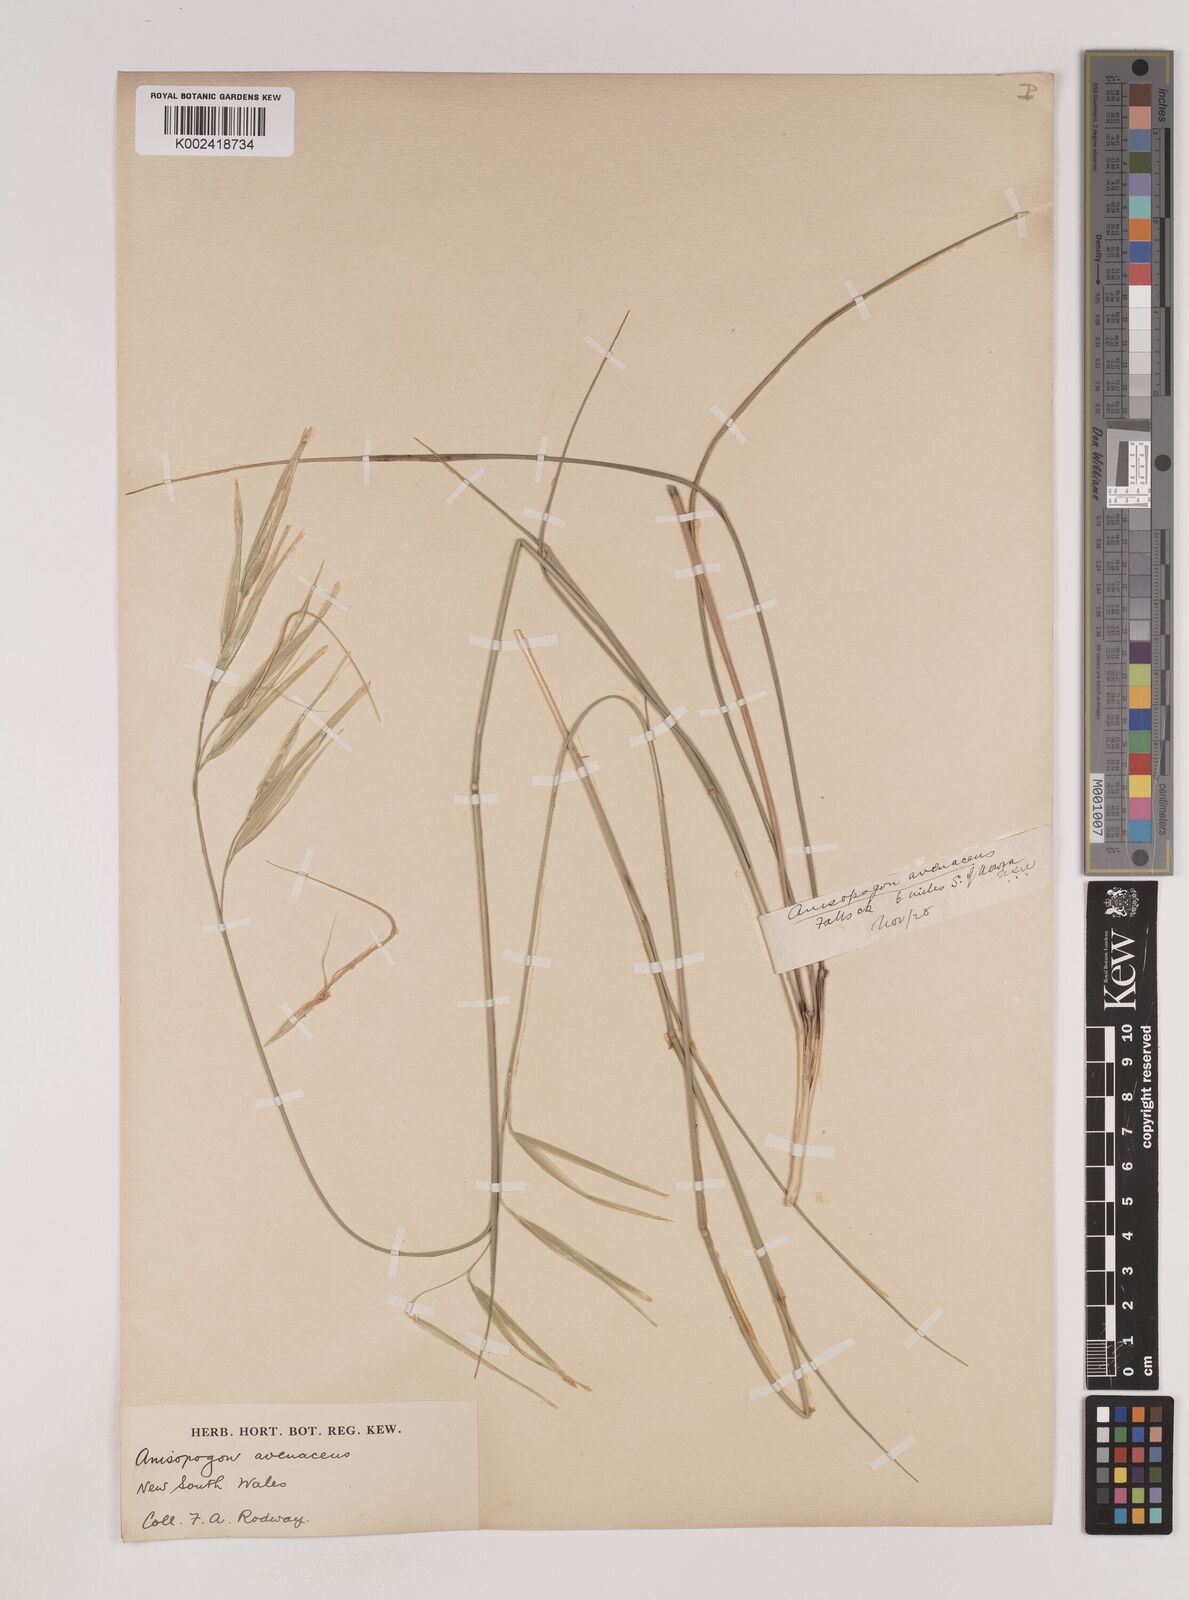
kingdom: Plantae
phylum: Tracheophyta
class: Liliopsida
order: Poales
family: Poaceae
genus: Anisopogon
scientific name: Anisopogon avenaceus
